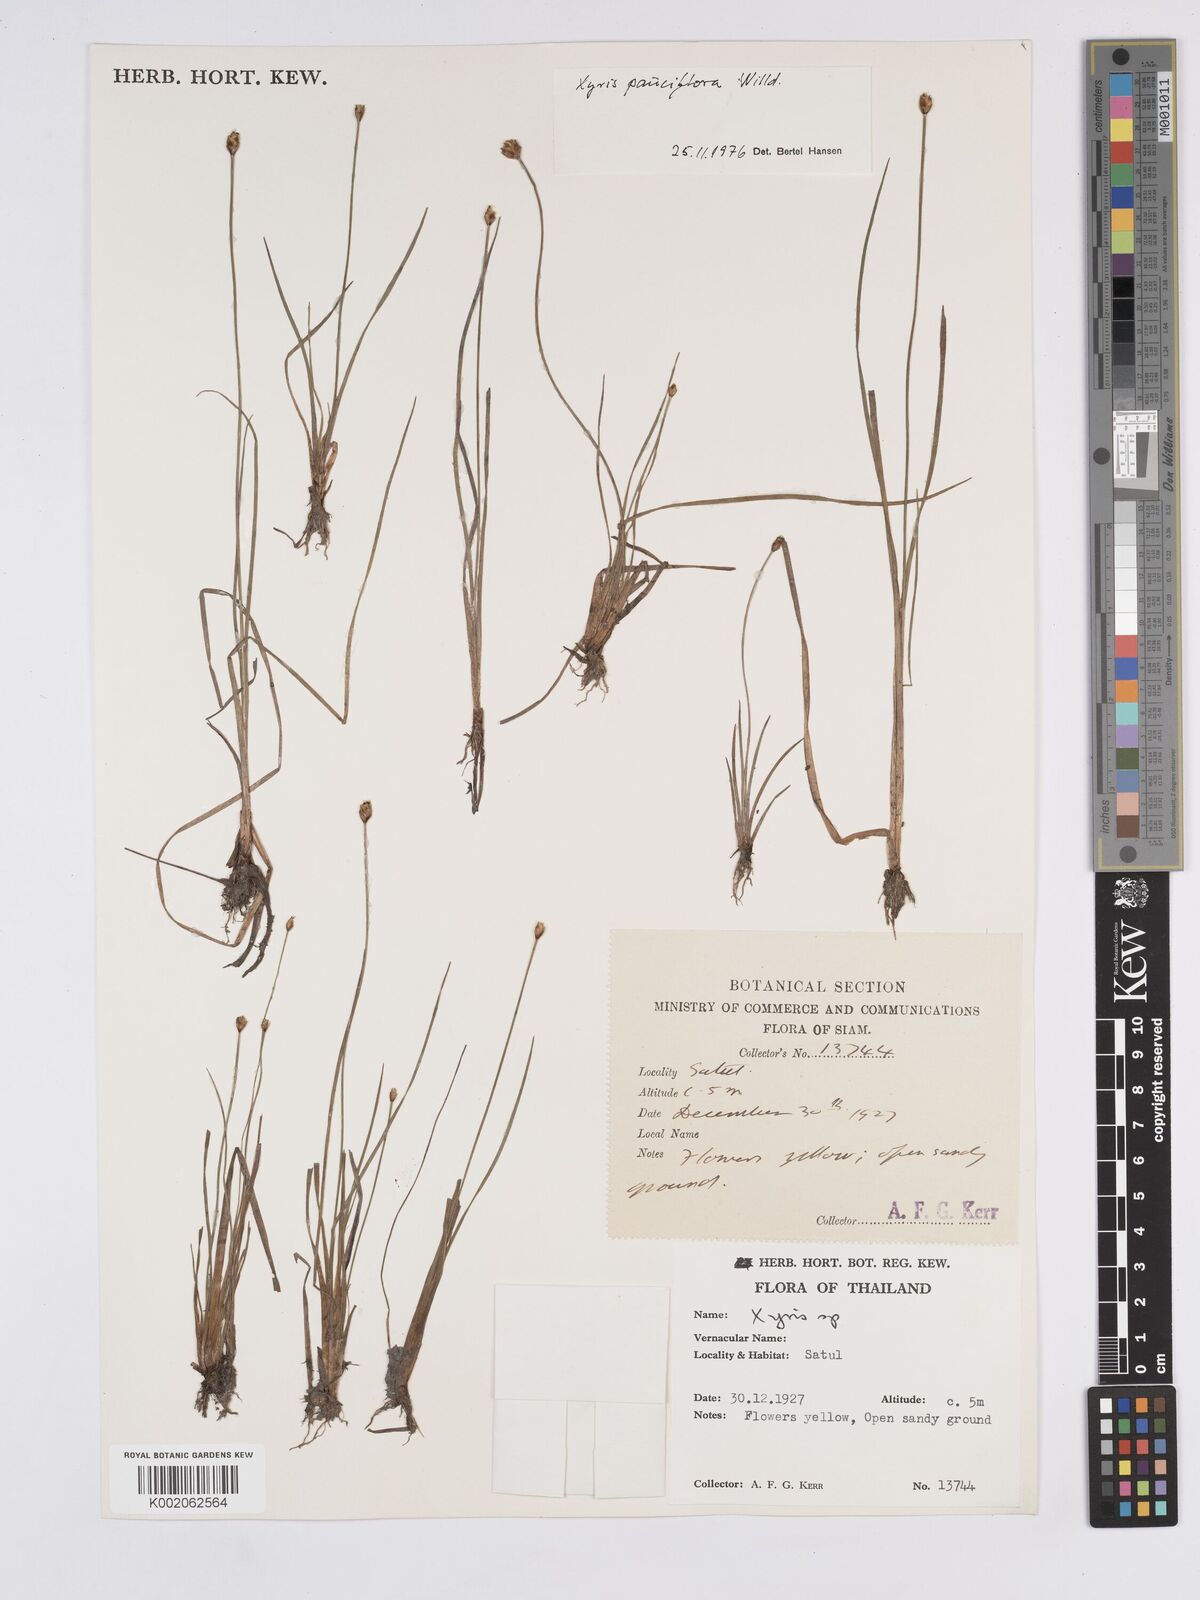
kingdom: Plantae
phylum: Tracheophyta
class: Liliopsida
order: Poales
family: Xyridaceae
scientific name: Xyridaceae
